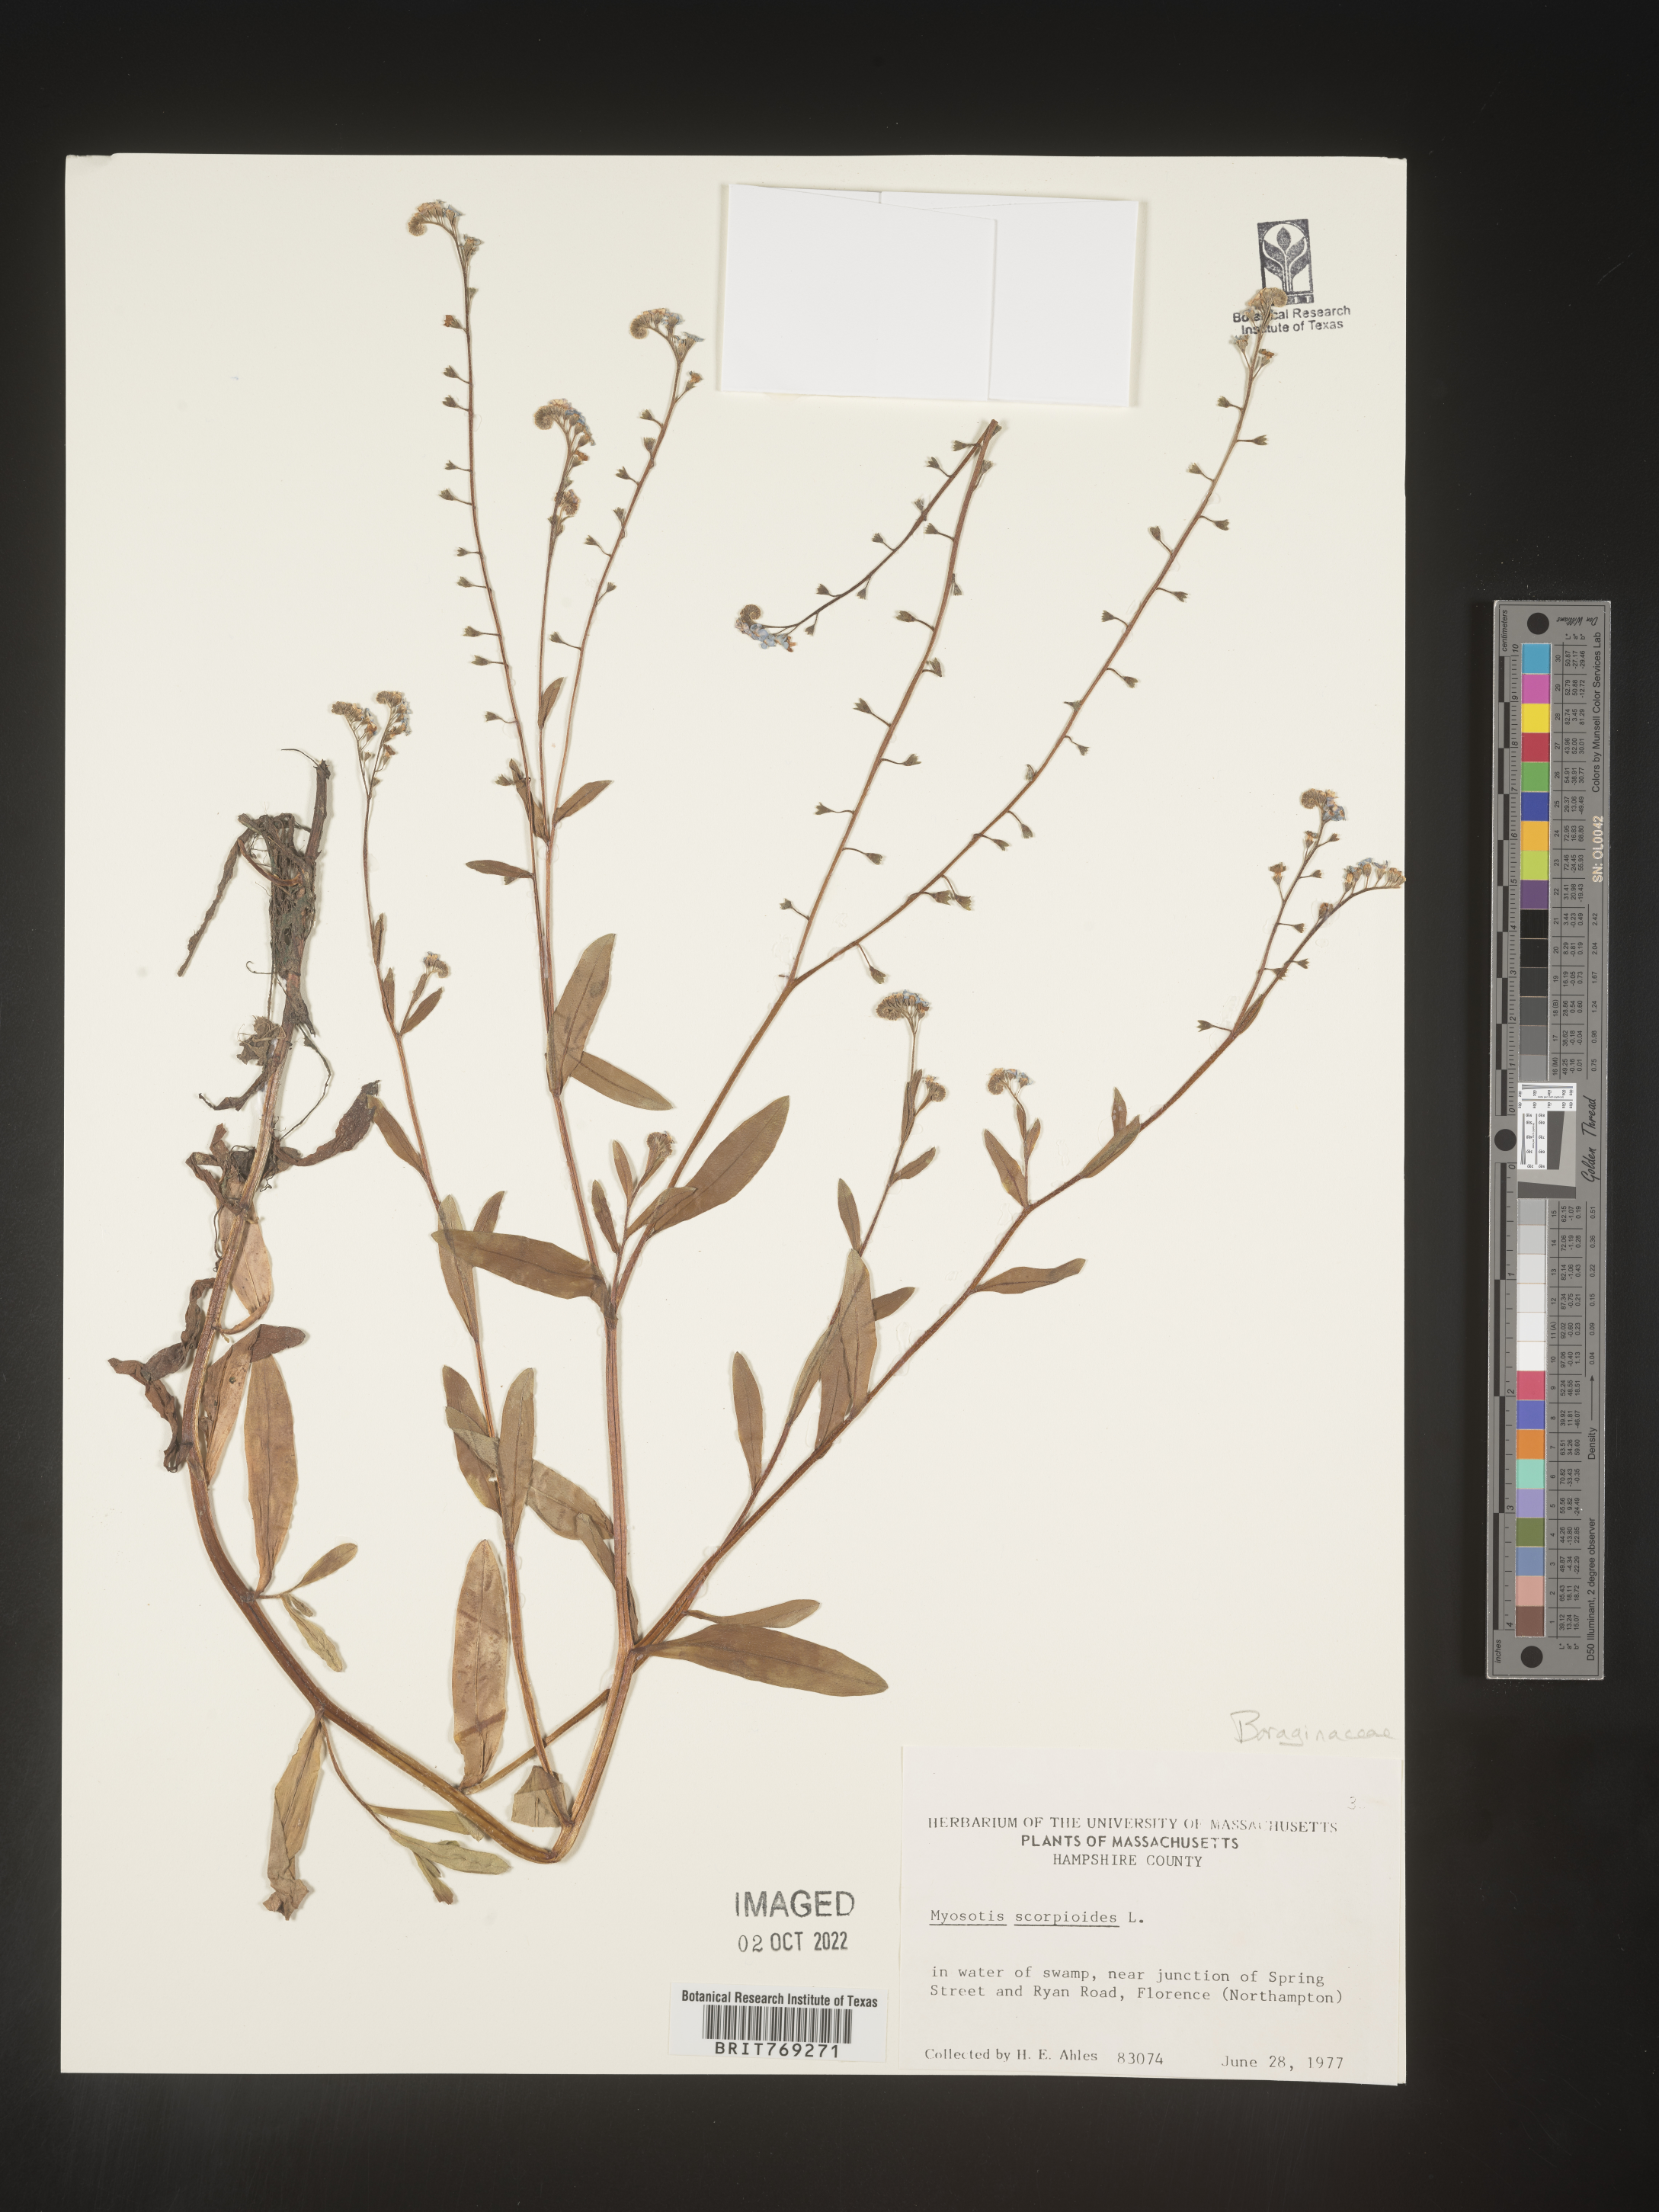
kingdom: Plantae
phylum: Tracheophyta
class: Magnoliopsida
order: Boraginales
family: Boraginaceae
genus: Myosotis
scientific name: Myosotis scorpioides
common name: Water forget-me-not
